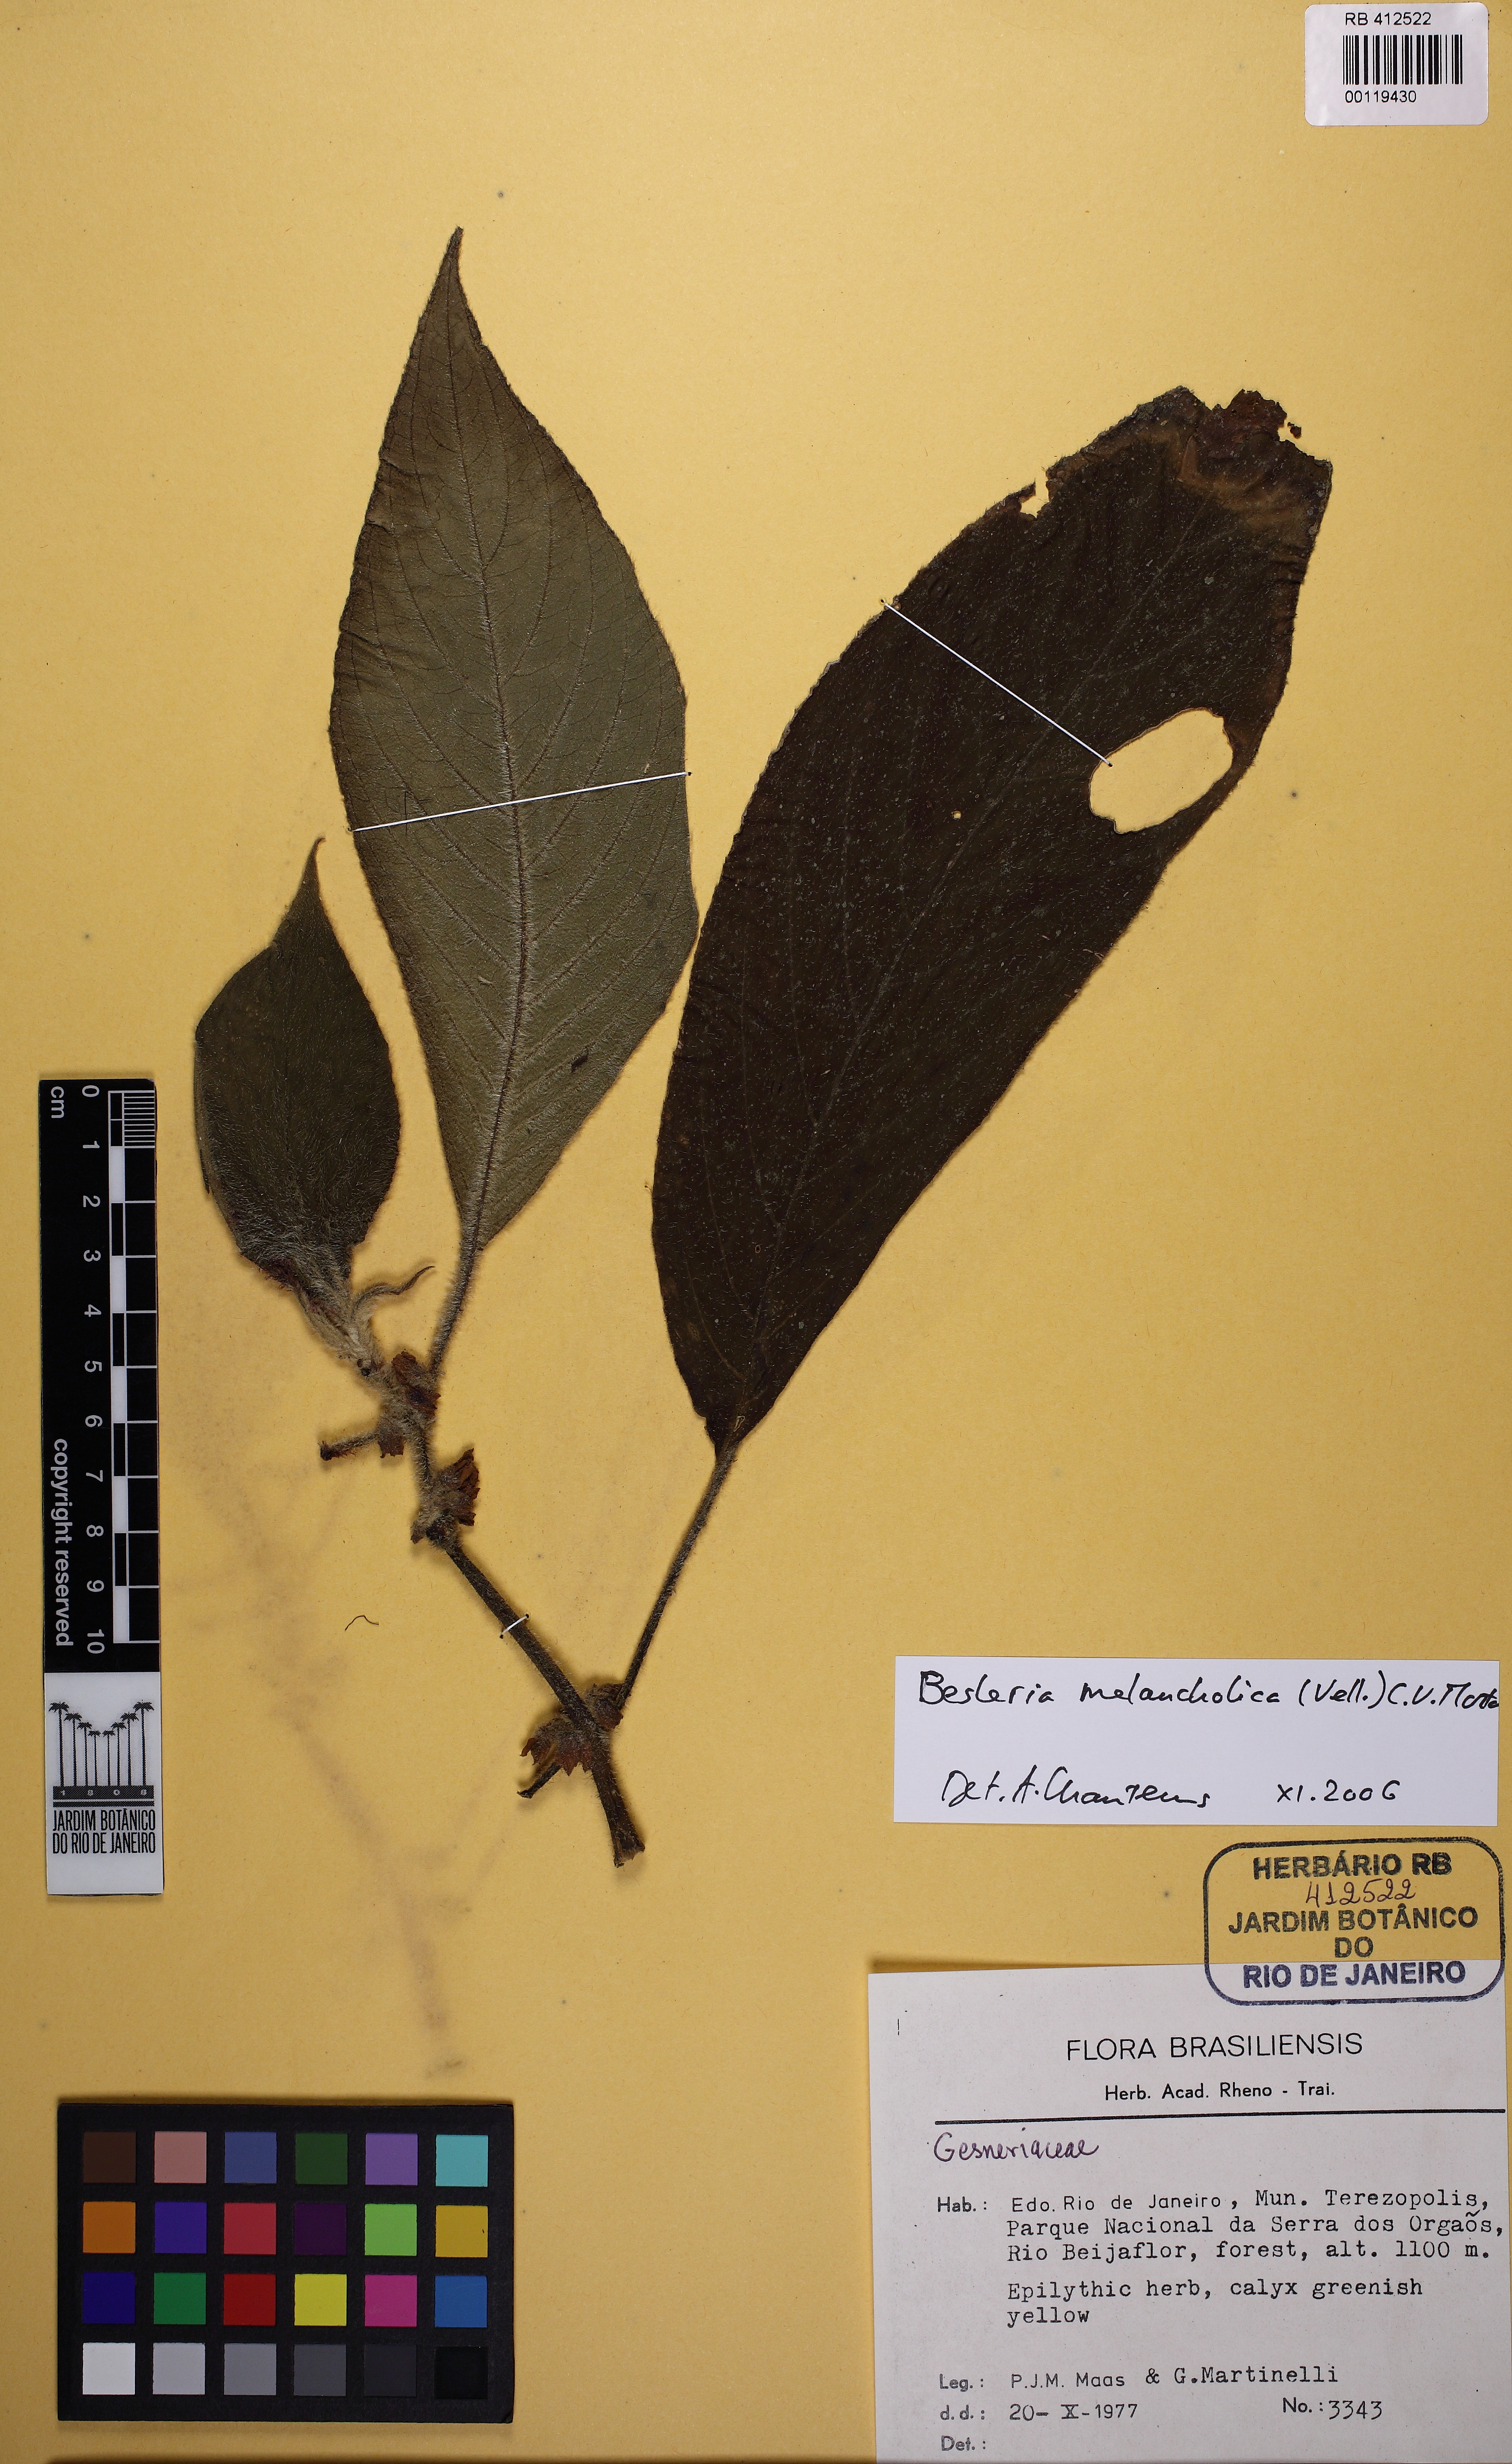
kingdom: Plantae
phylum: Tracheophyta
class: Magnoliopsida
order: Lamiales
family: Gesneriaceae
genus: Besleria
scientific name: Besleria melancholica
